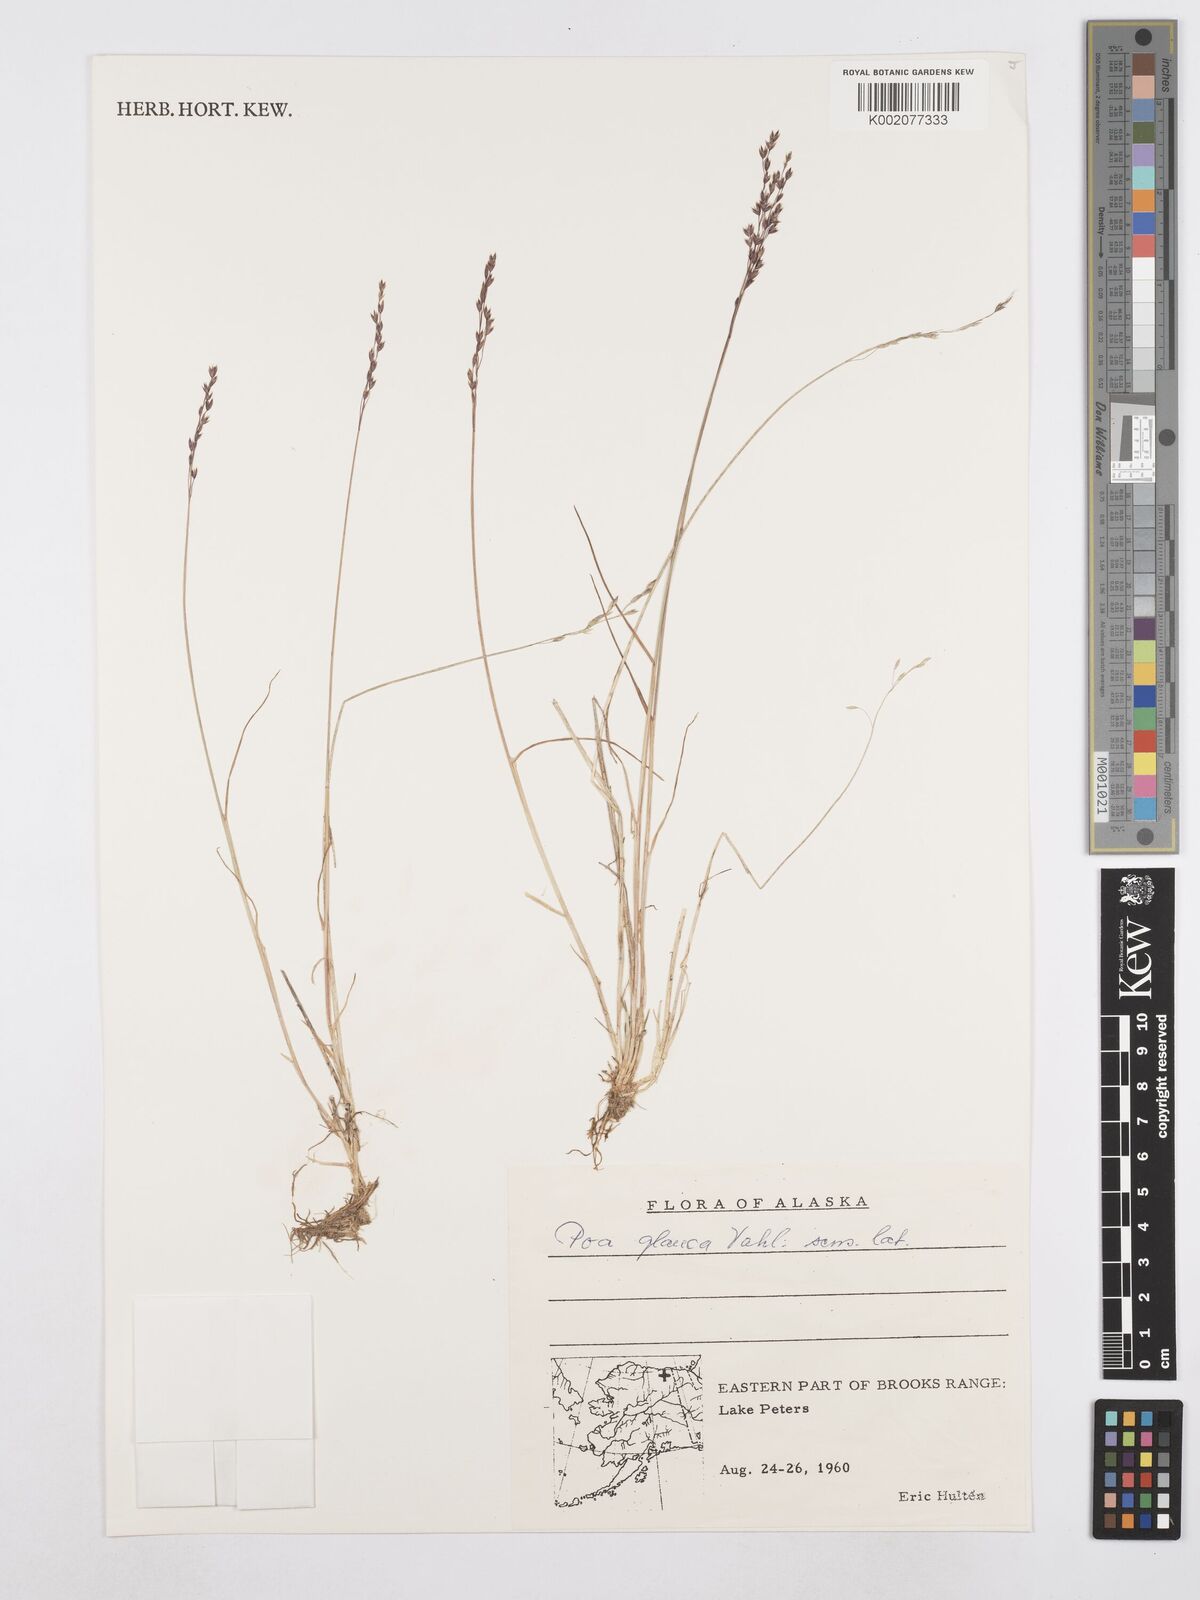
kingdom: Plantae
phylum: Tracheophyta
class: Liliopsida
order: Poales
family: Poaceae
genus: Poa
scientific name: Poa glauca
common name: Glaucous bluegrass
